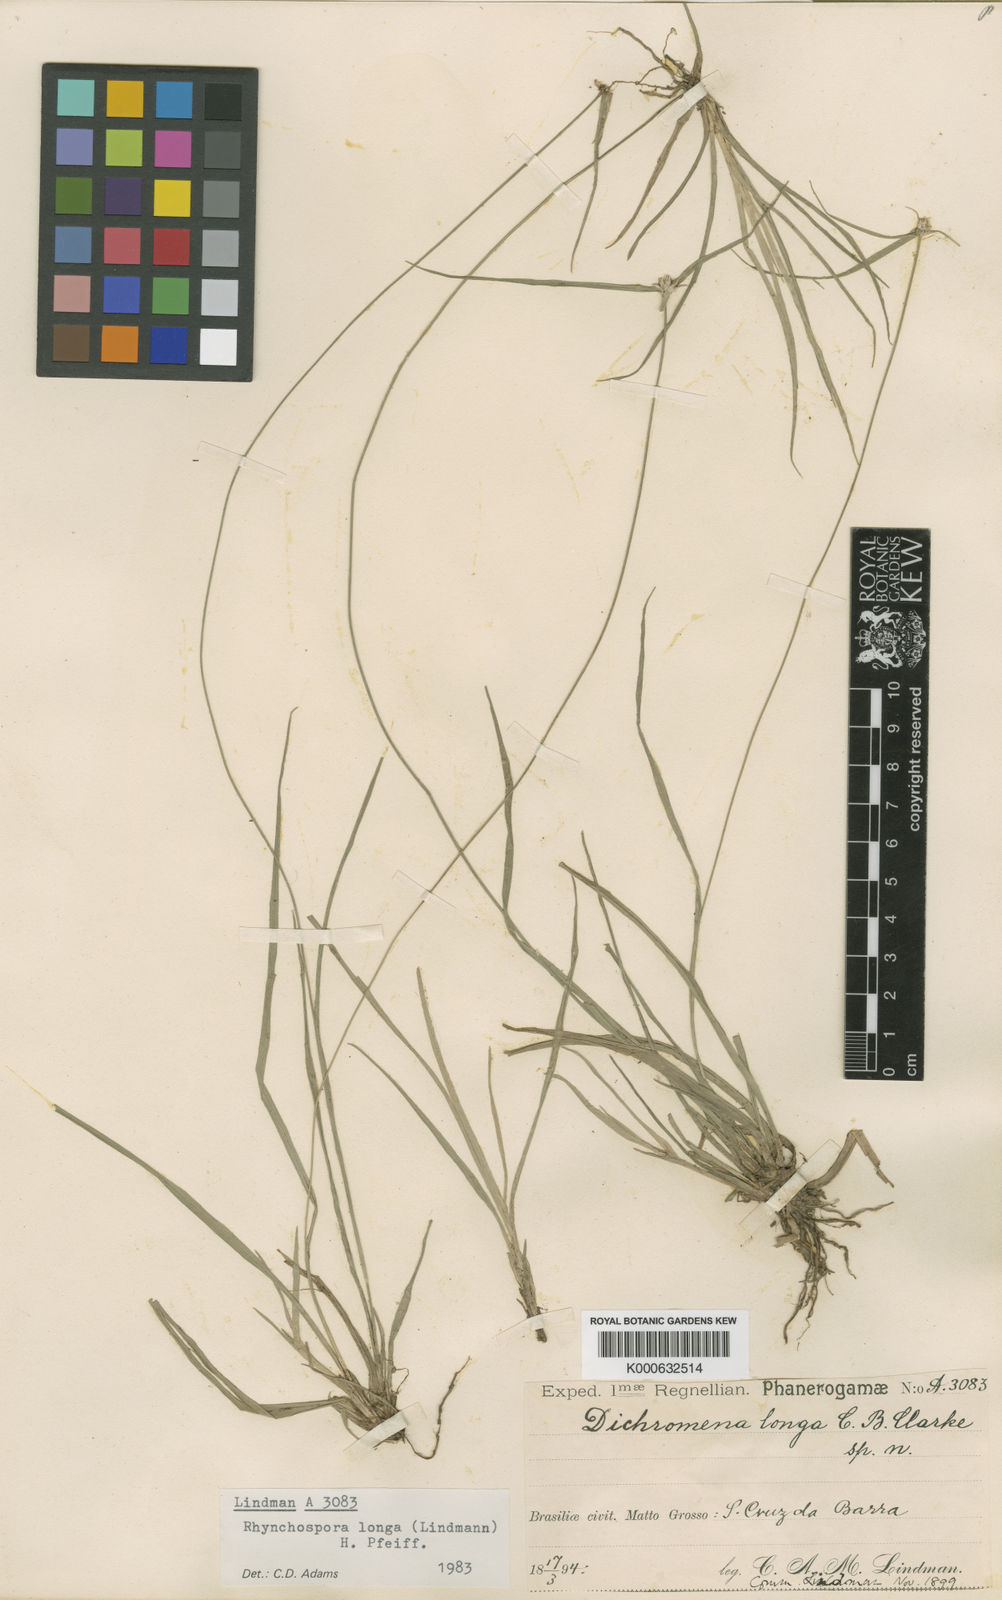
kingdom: Plantae
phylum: Tracheophyta
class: Liliopsida
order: Poales
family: Cyperaceae
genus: Rhynchospora
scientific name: Rhynchospora longa
